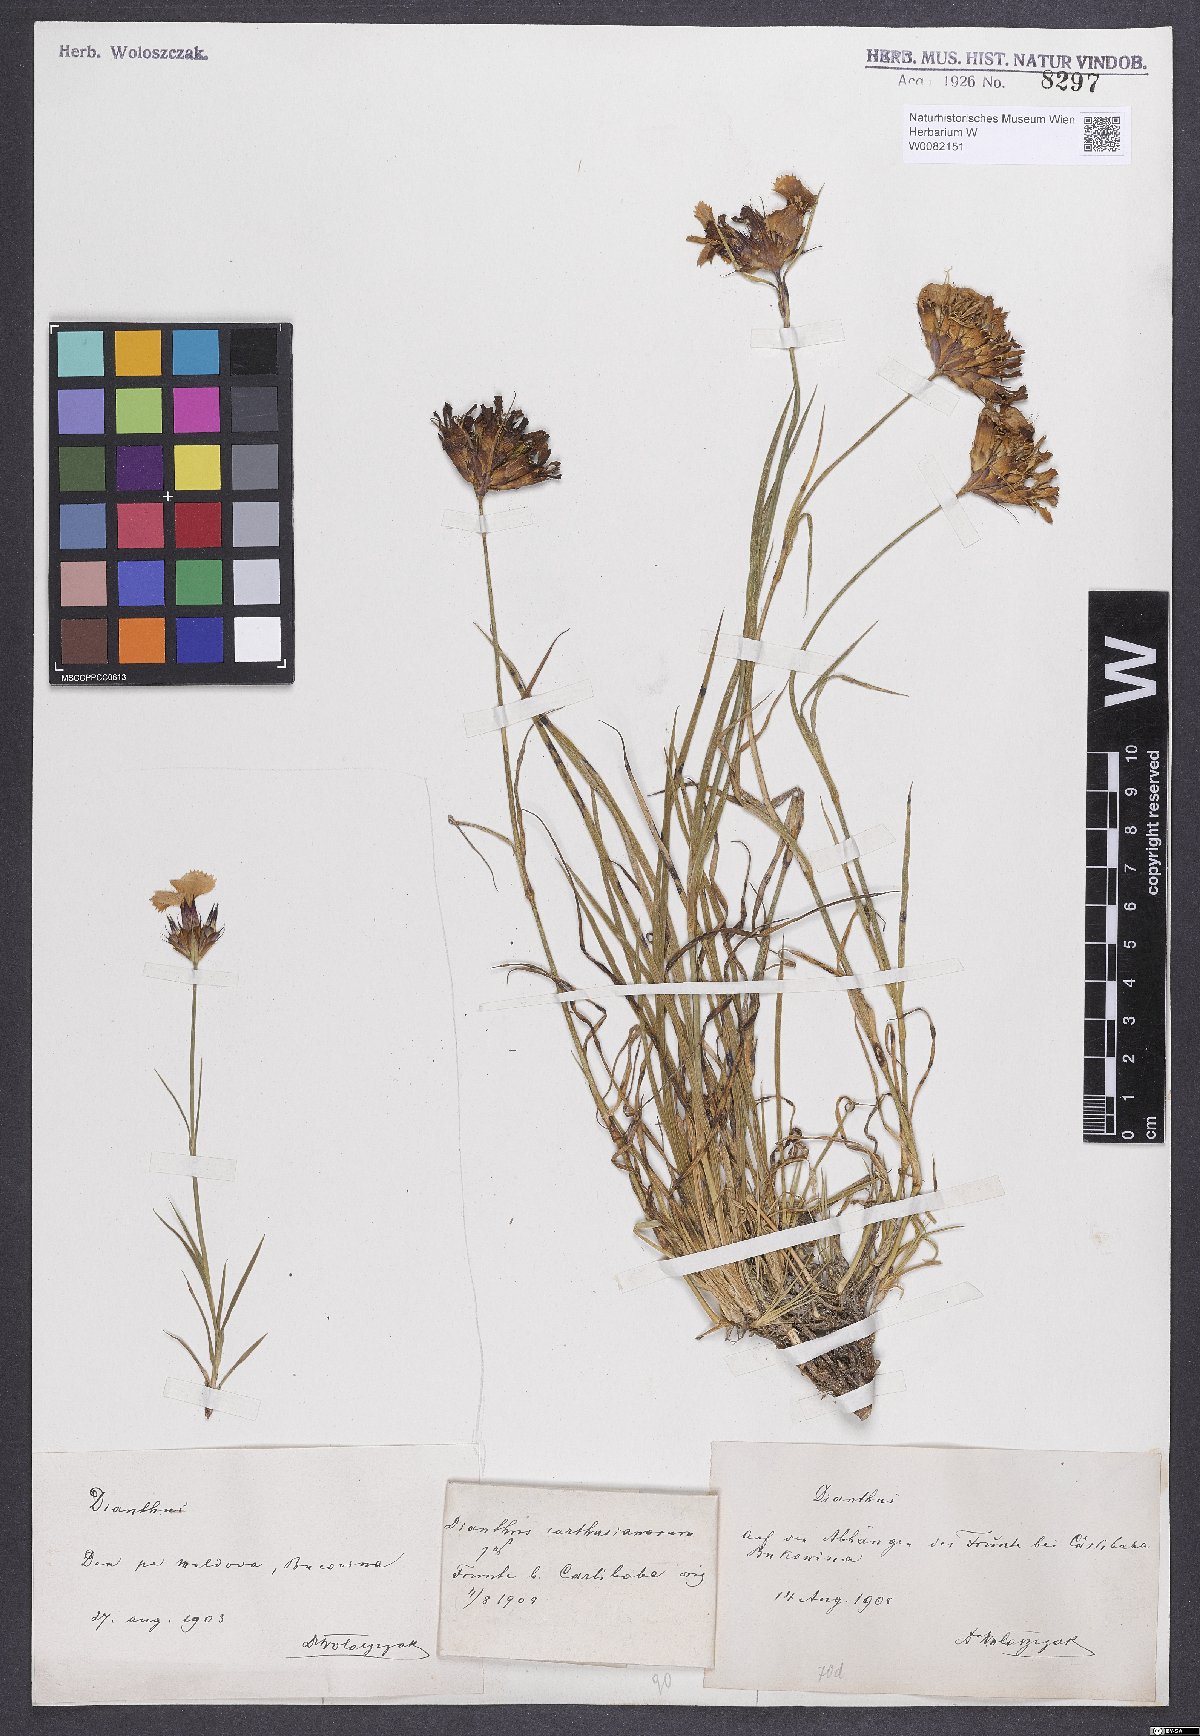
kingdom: Plantae
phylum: Tracheophyta
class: Magnoliopsida
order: Caryophyllales
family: Caryophyllaceae
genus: Dianthus
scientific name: Dianthus carthusianorum
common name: Carthusian pink
